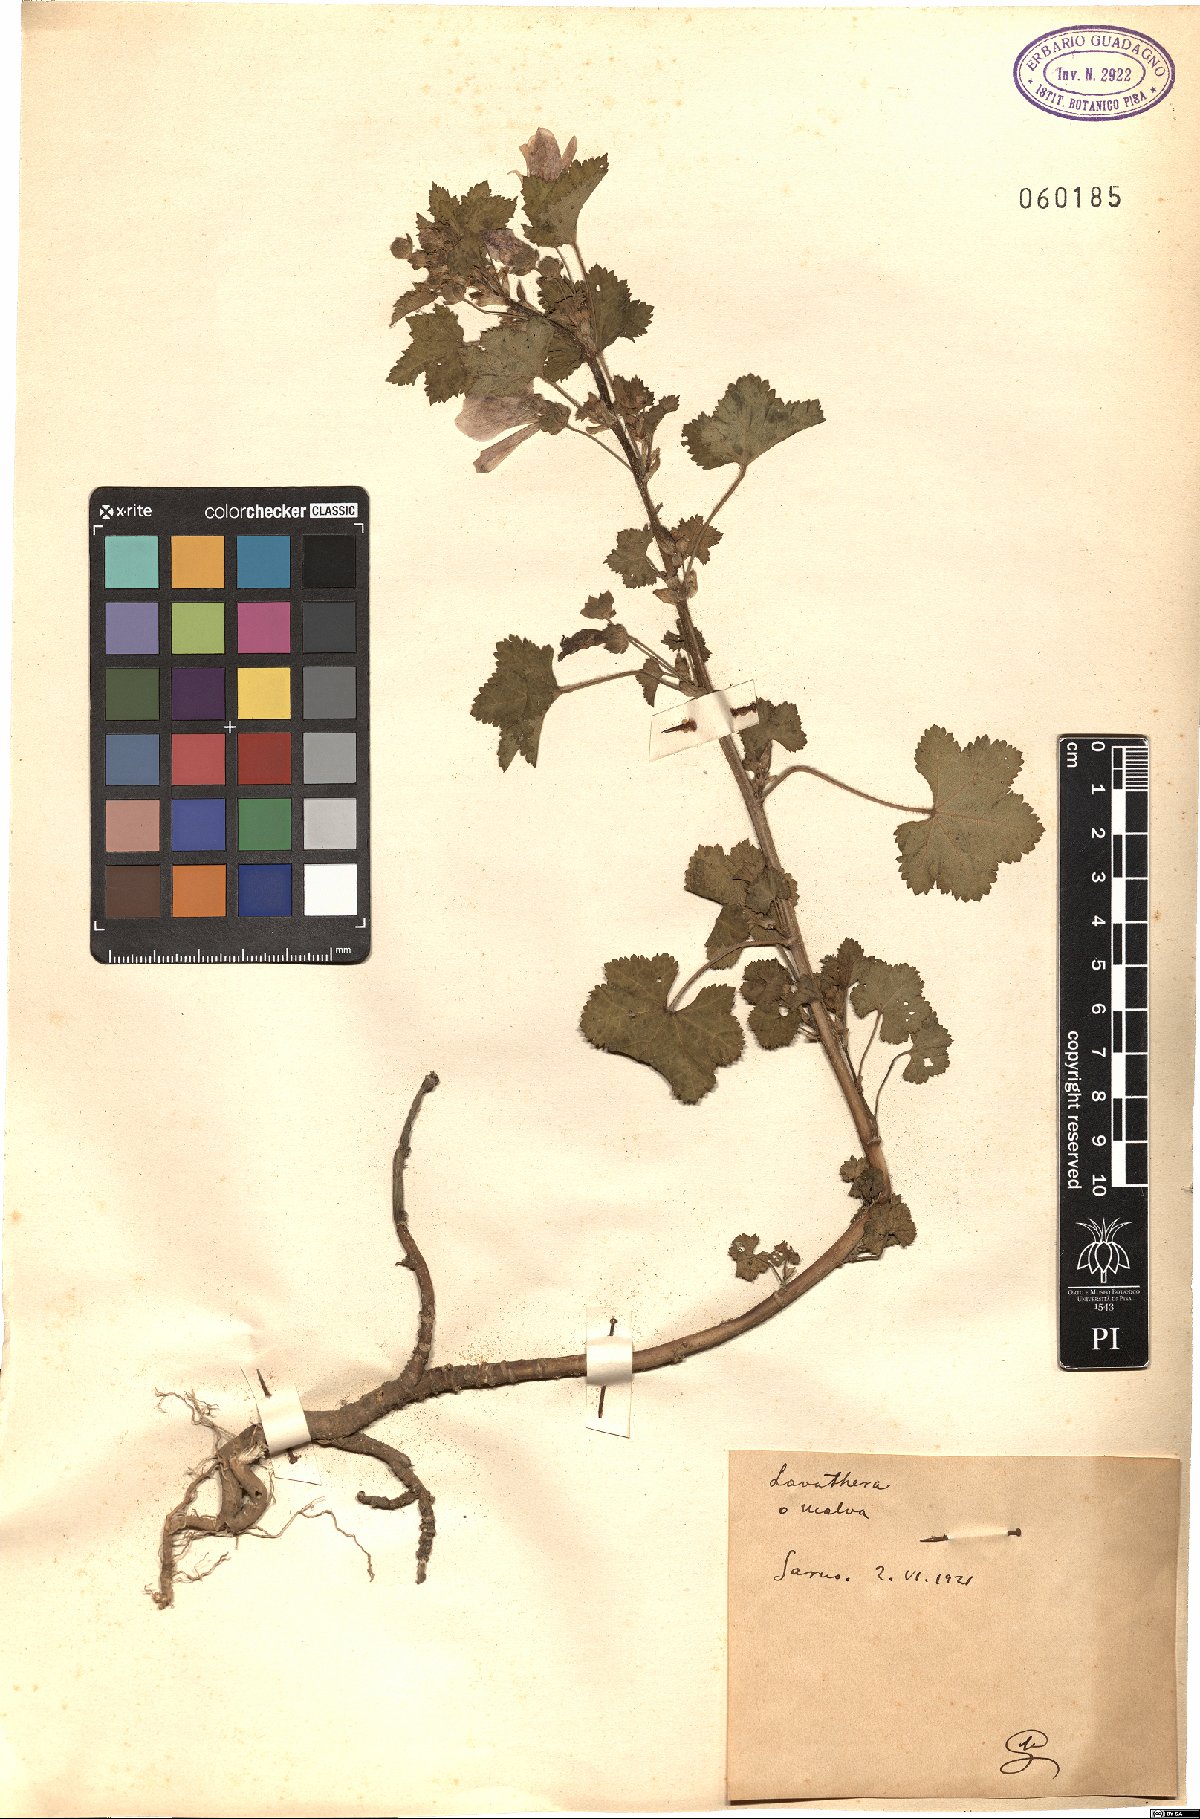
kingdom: Plantae
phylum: Tracheophyta
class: Magnoliopsida
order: Malvales
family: Malvaceae
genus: Malva
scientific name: Malva
